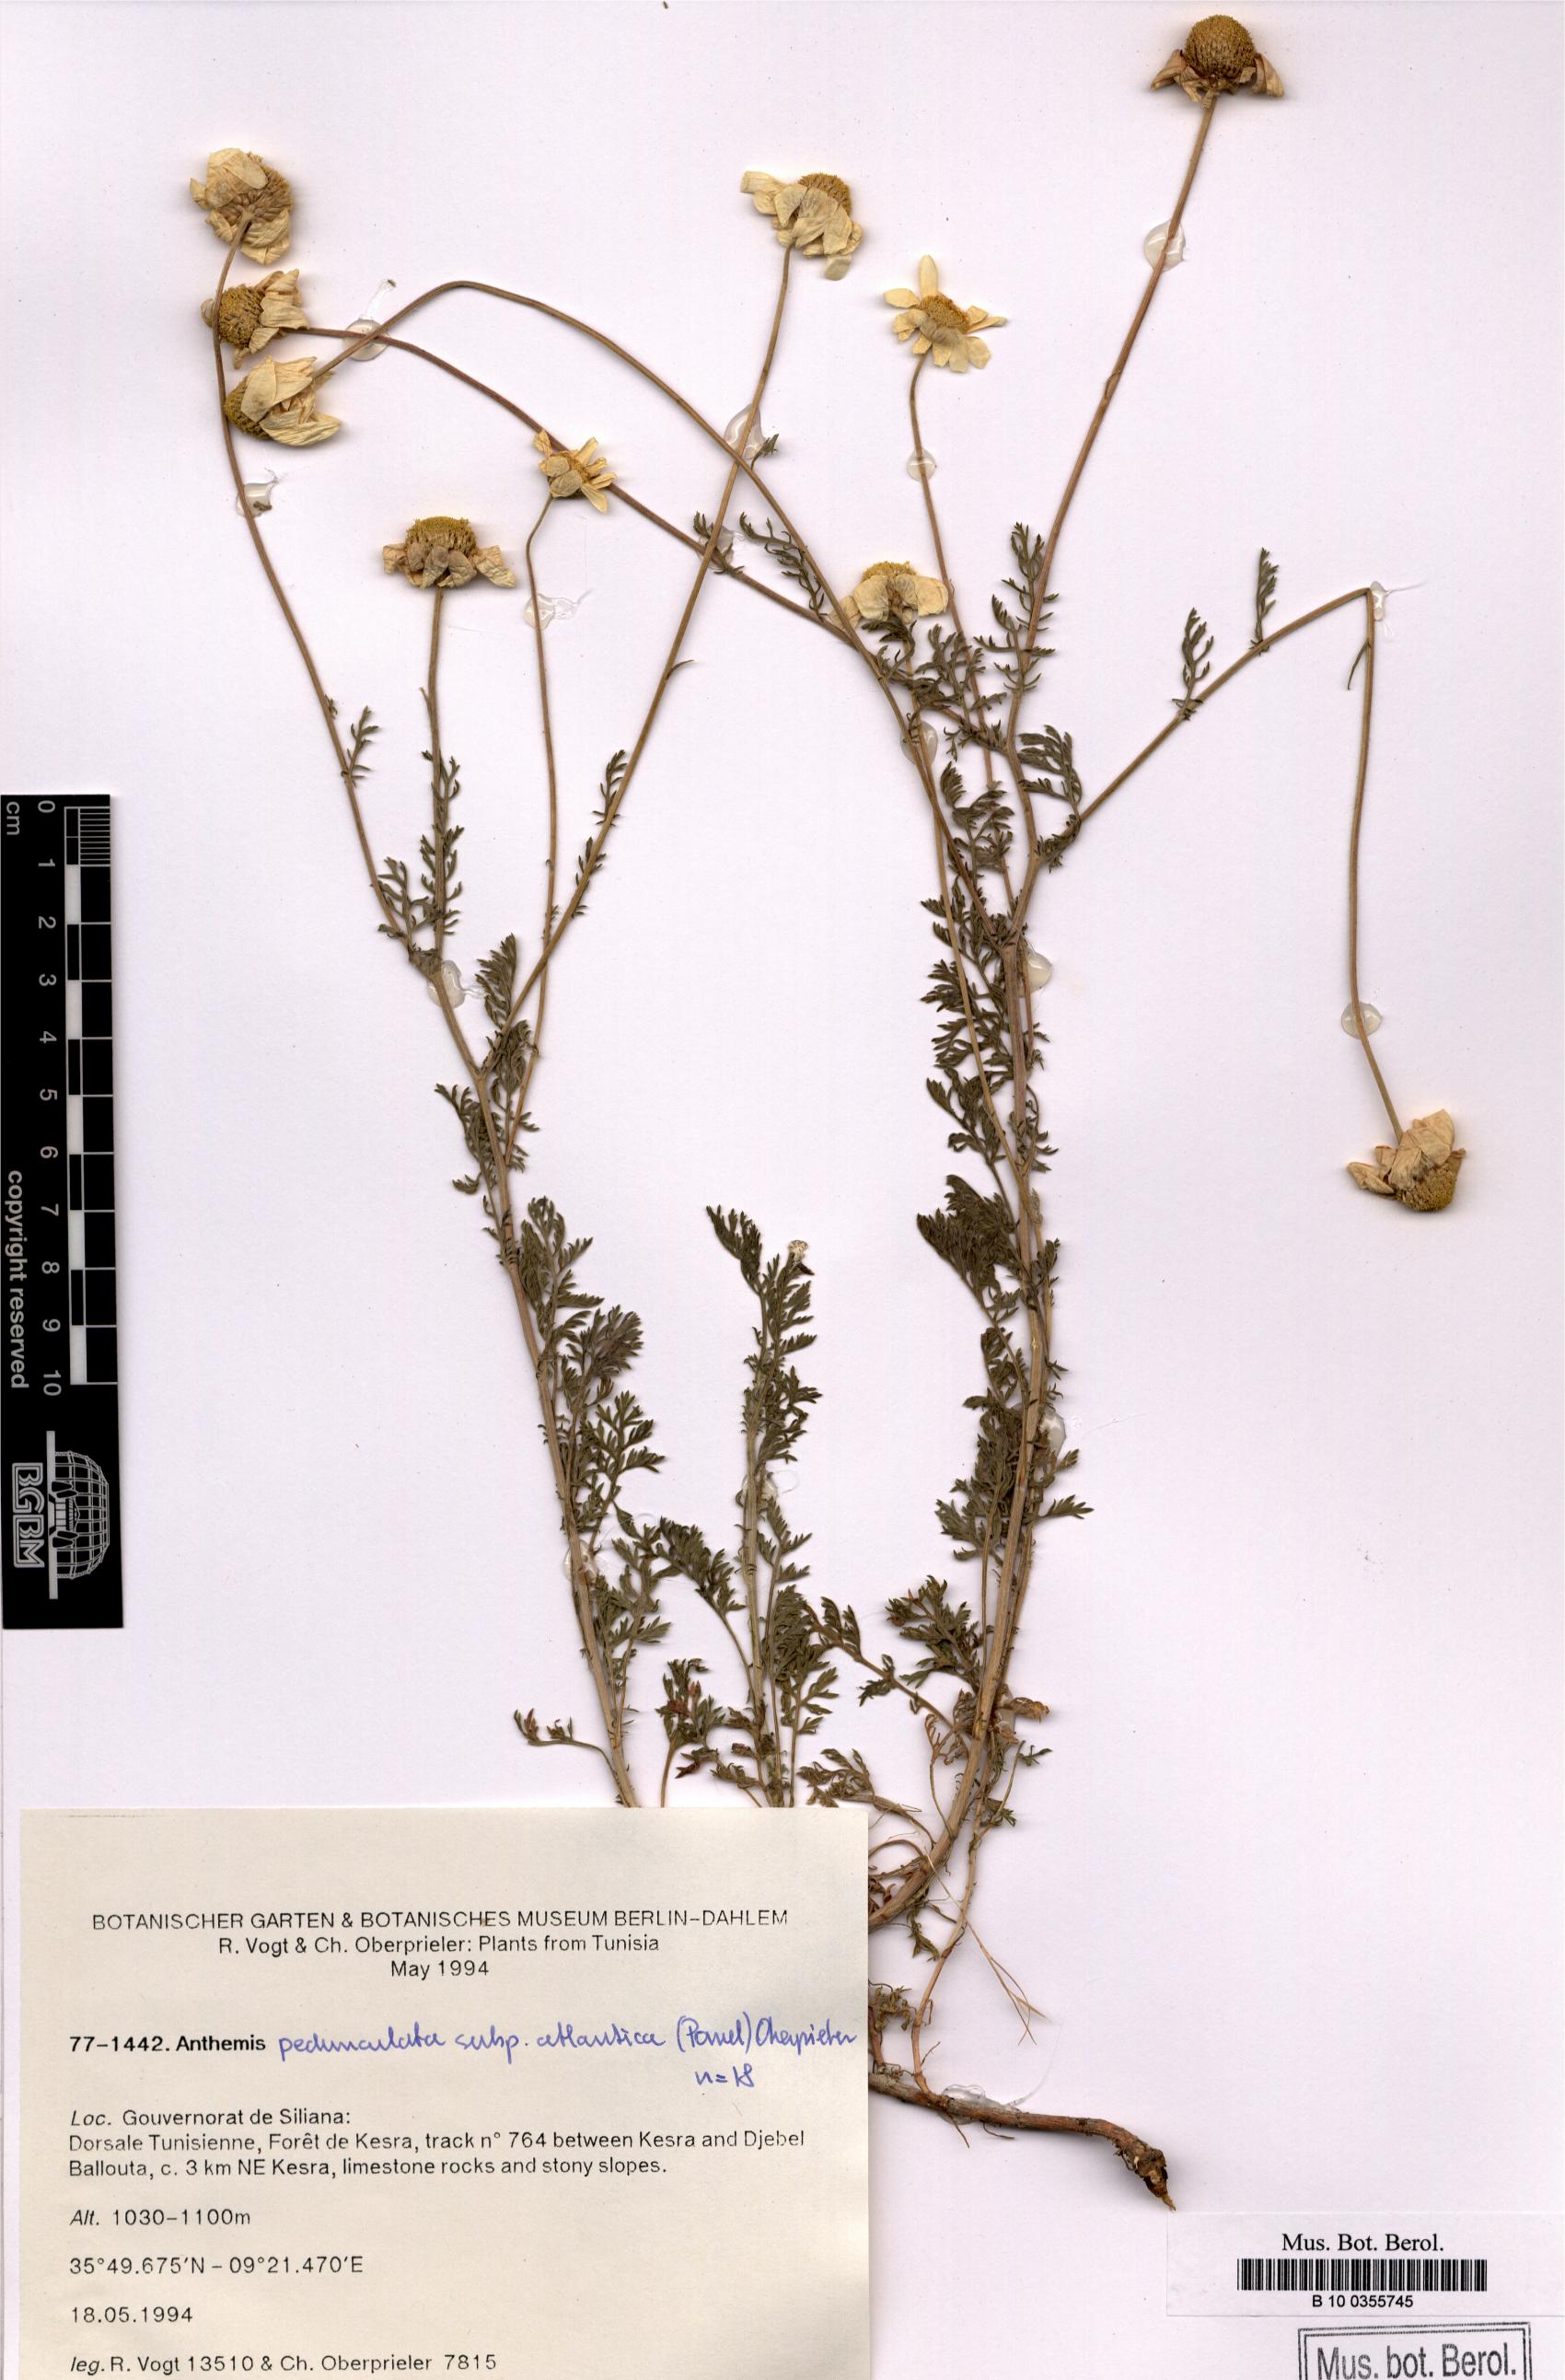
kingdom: Plantae
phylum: Tracheophyta
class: Magnoliopsida
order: Asterales
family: Asteraceae
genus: Anthemis
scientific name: Anthemis pedunculata
